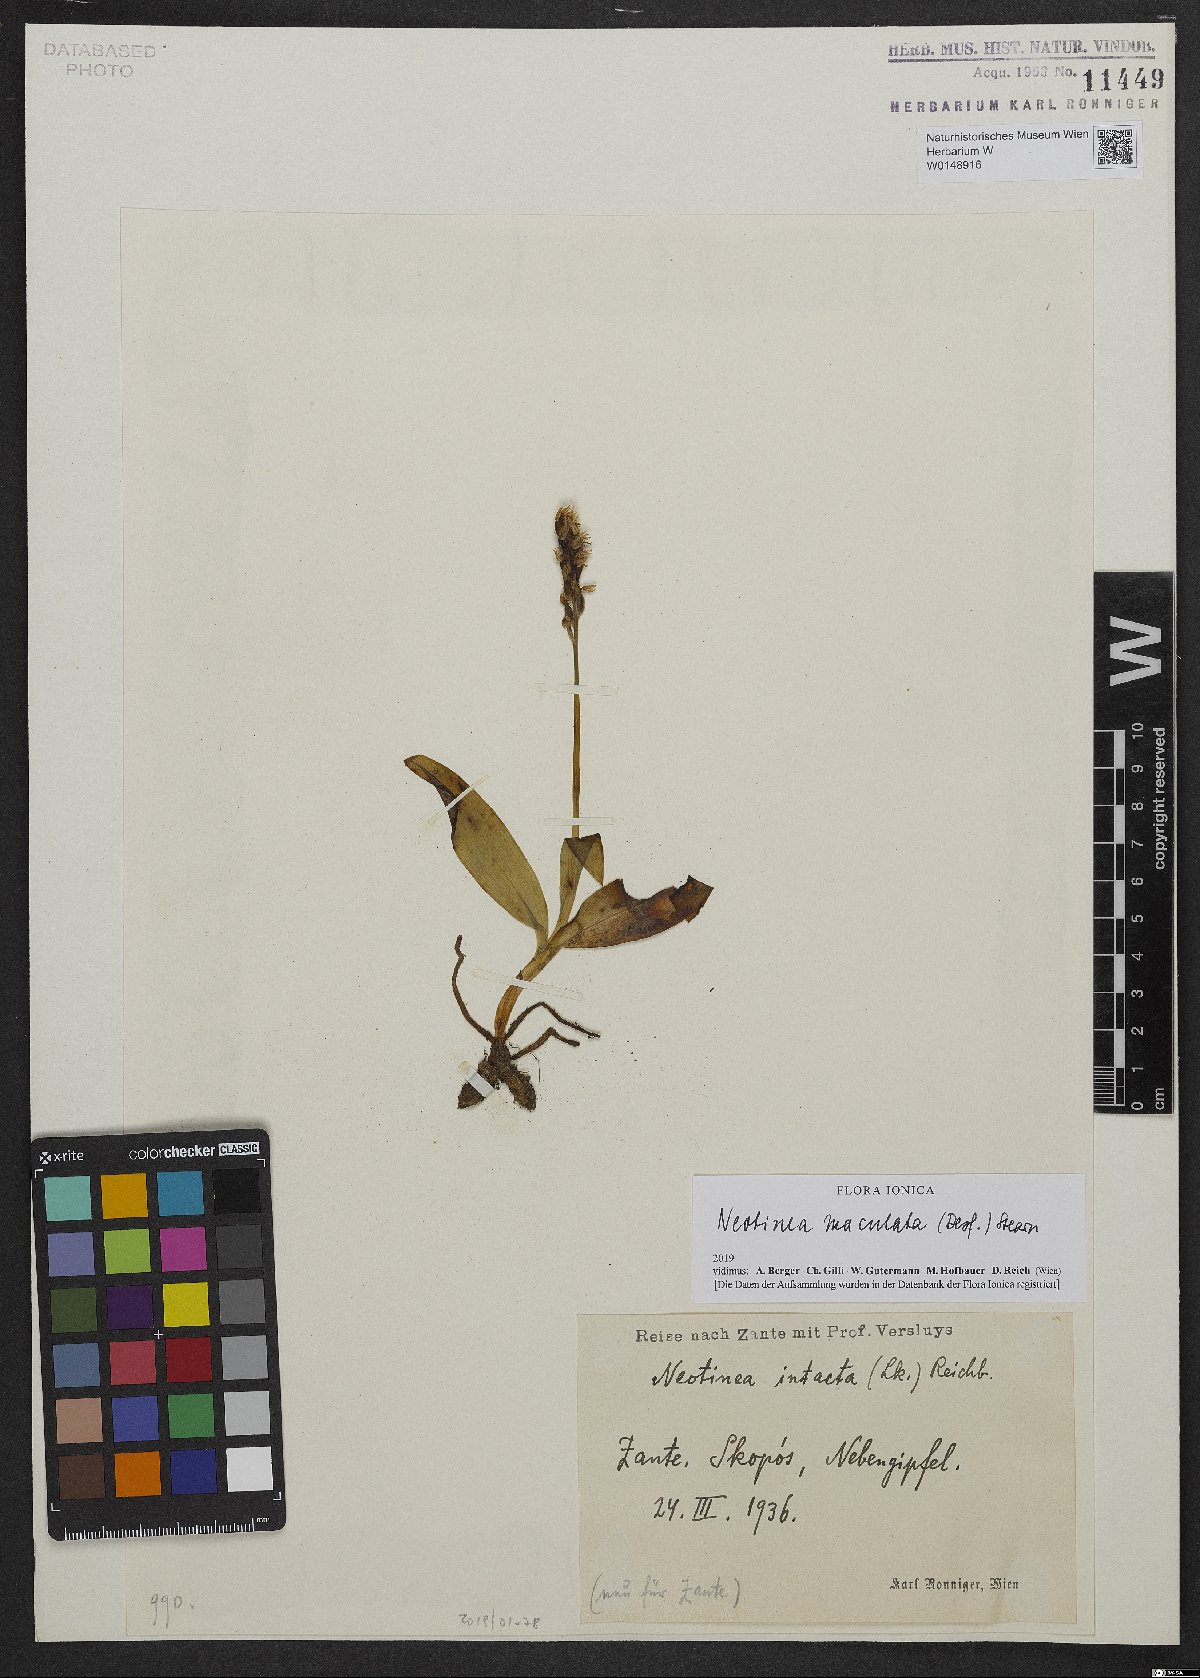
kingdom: Plantae
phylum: Tracheophyta
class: Liliopsida
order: Asparagales
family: Orchidaceae
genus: Neotinea
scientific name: Neotinea maculata
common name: Dense-flowered orchid
